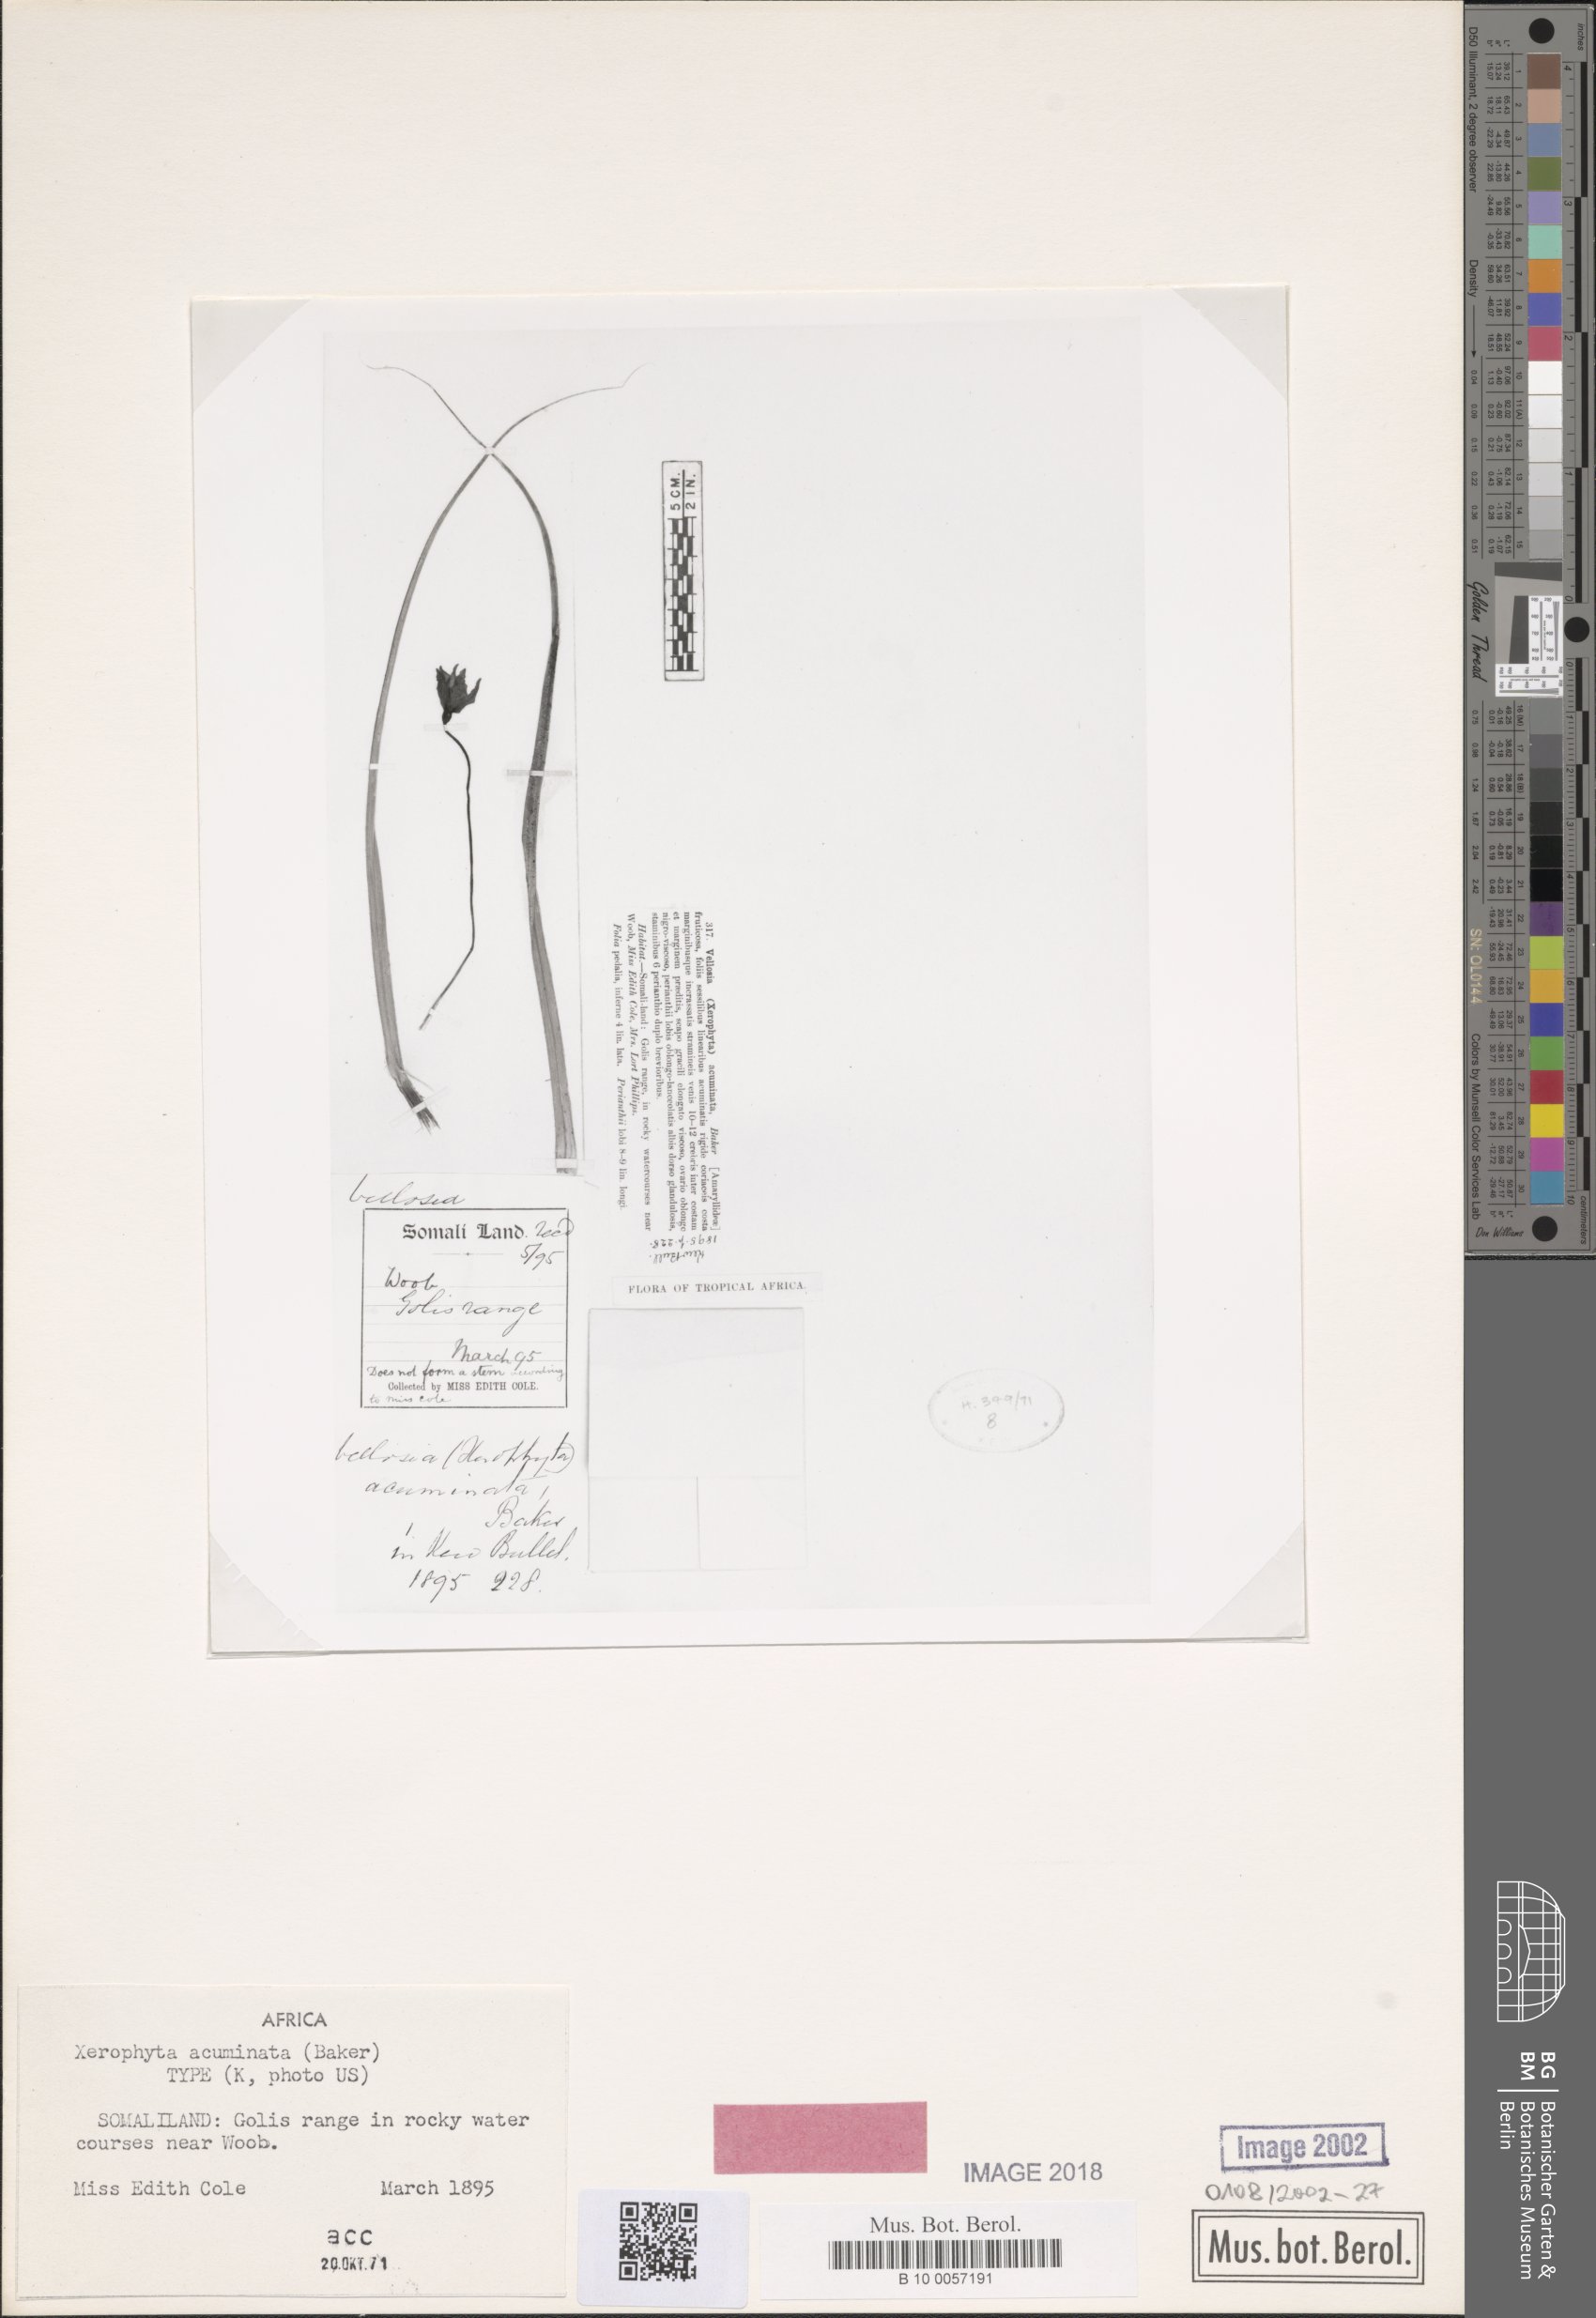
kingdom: Plantae
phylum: Tracheophyta
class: Liliopsida
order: Pandanales
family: Velloziaceae
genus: Xerophyta
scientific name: Xerophyta acuminata
